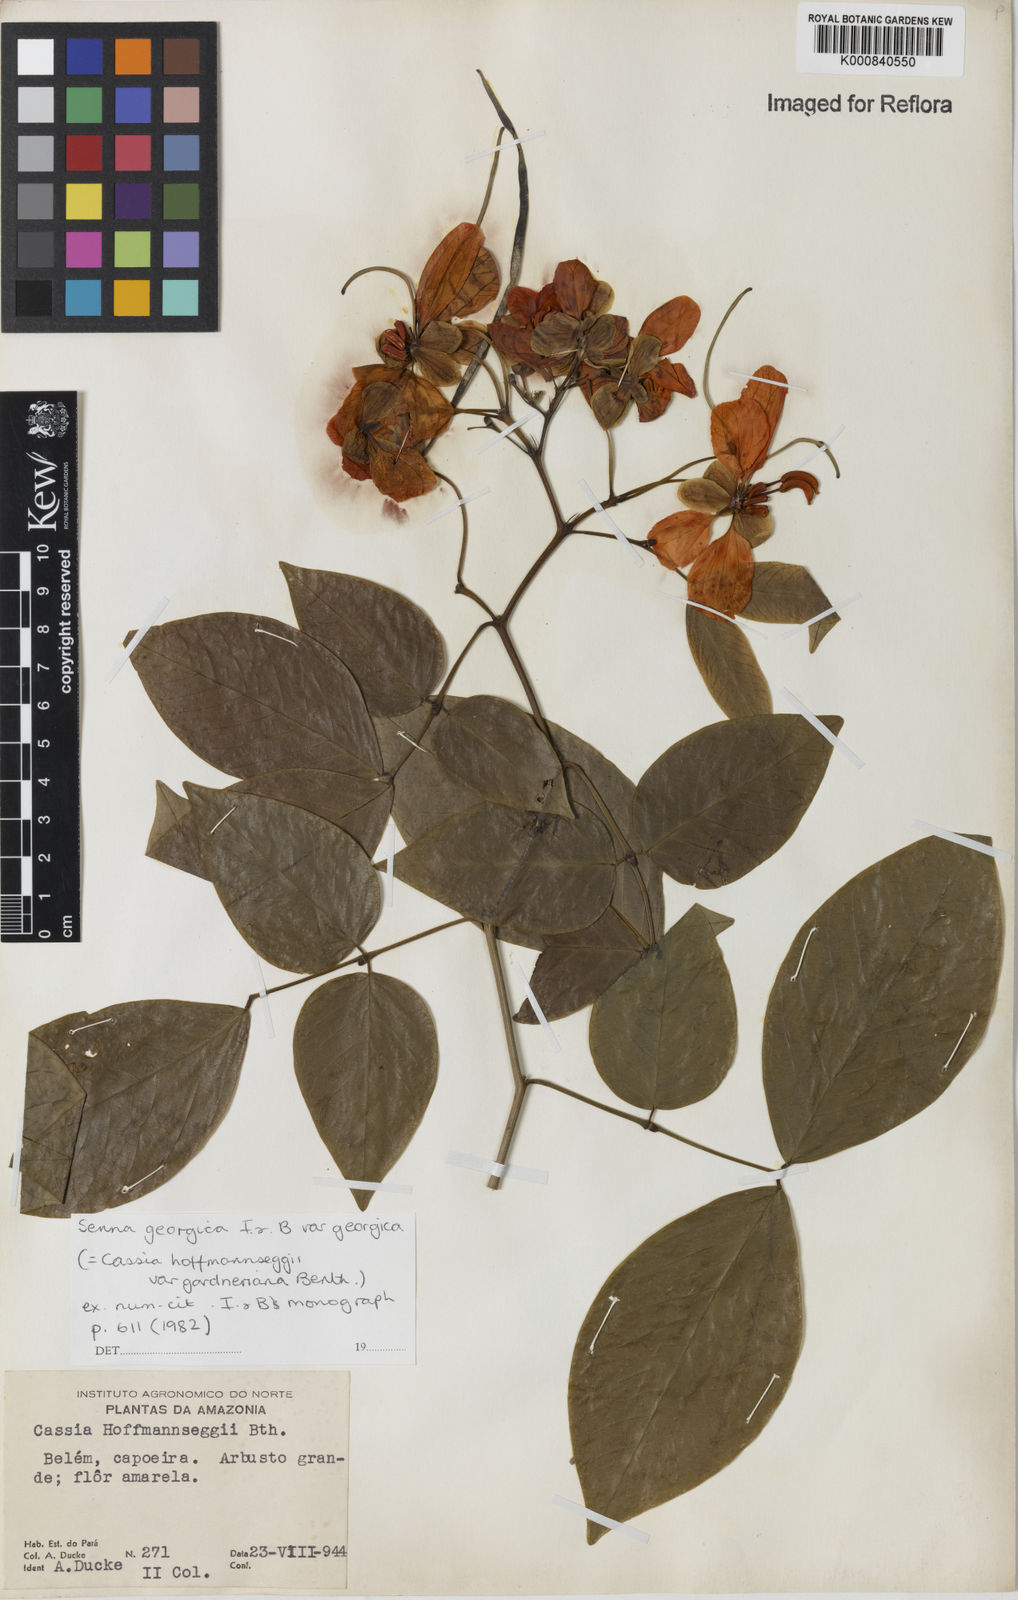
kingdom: Plantae
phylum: Tracheophyta
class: Magnoliopsida
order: Fabales
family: Fabaceae
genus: Senna
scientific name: Senna georgica
